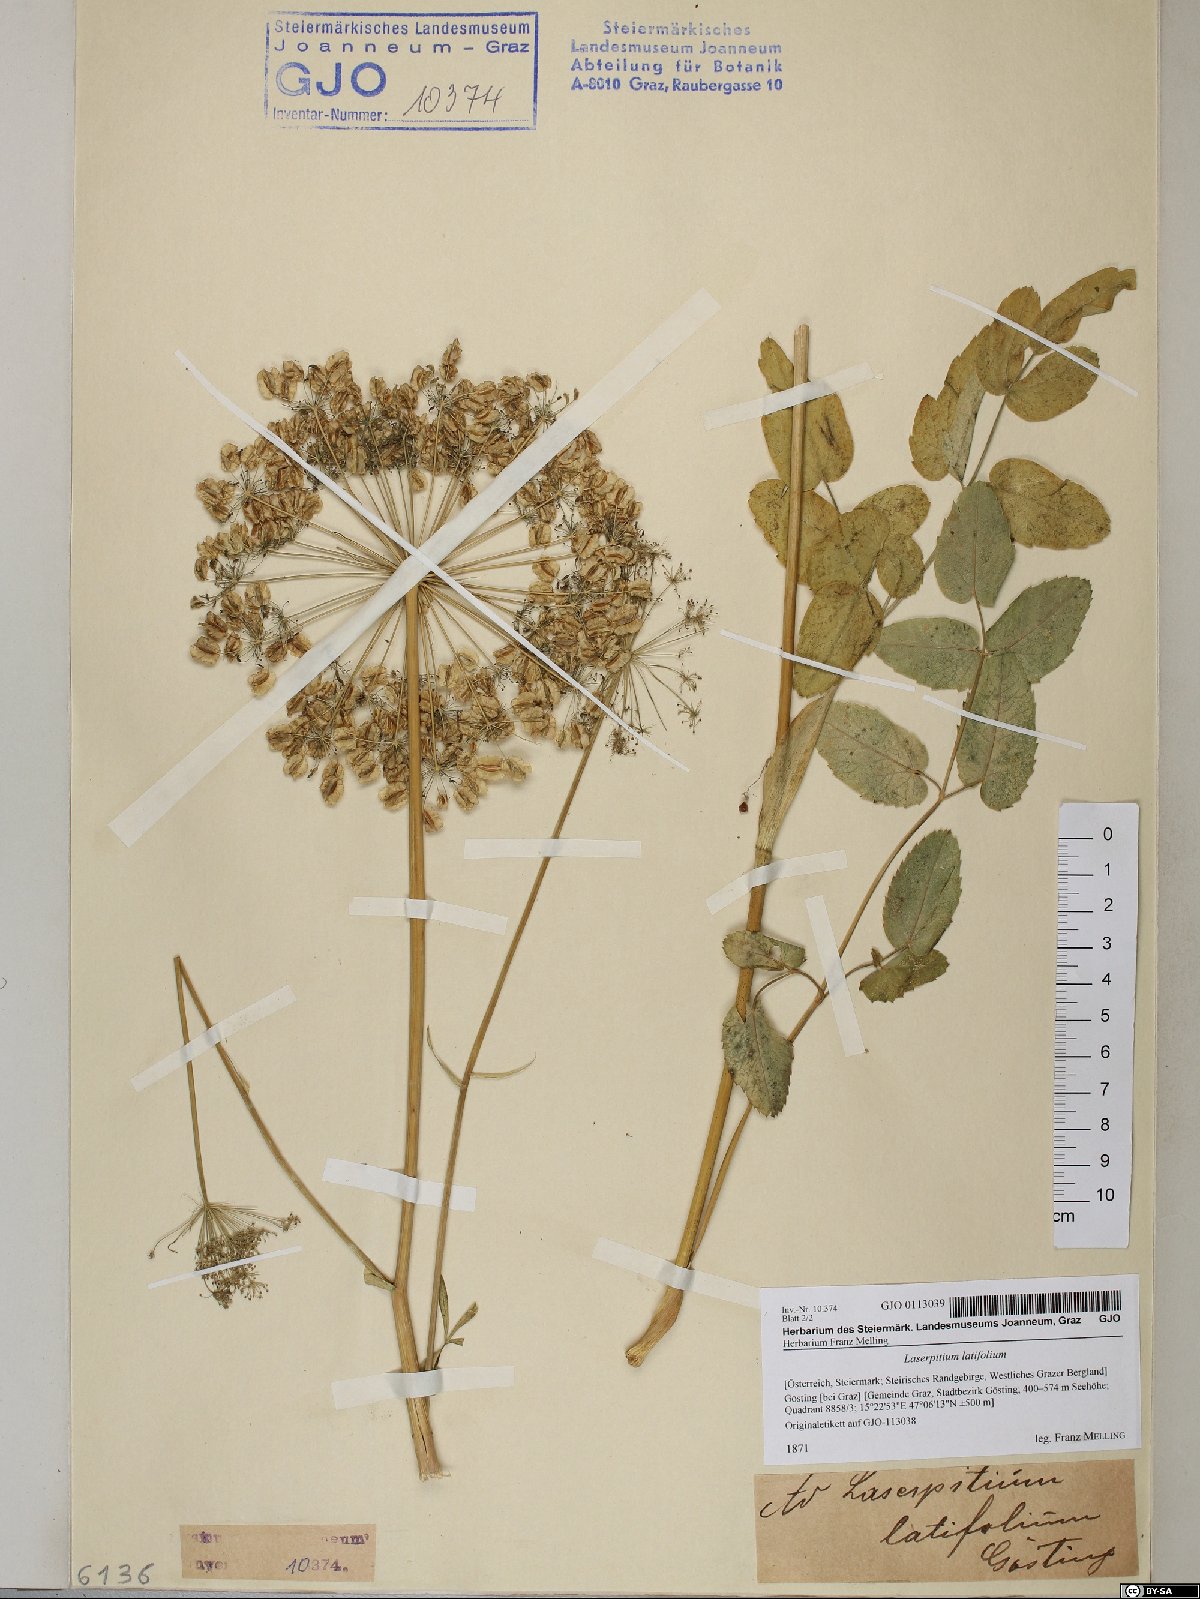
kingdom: Plantae
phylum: Tracheophyta
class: Magnoliopsida
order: Apiales
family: Apiaceae
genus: Laserpitium
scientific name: Laserpitium latifolium
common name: Broadleaf sermountain
